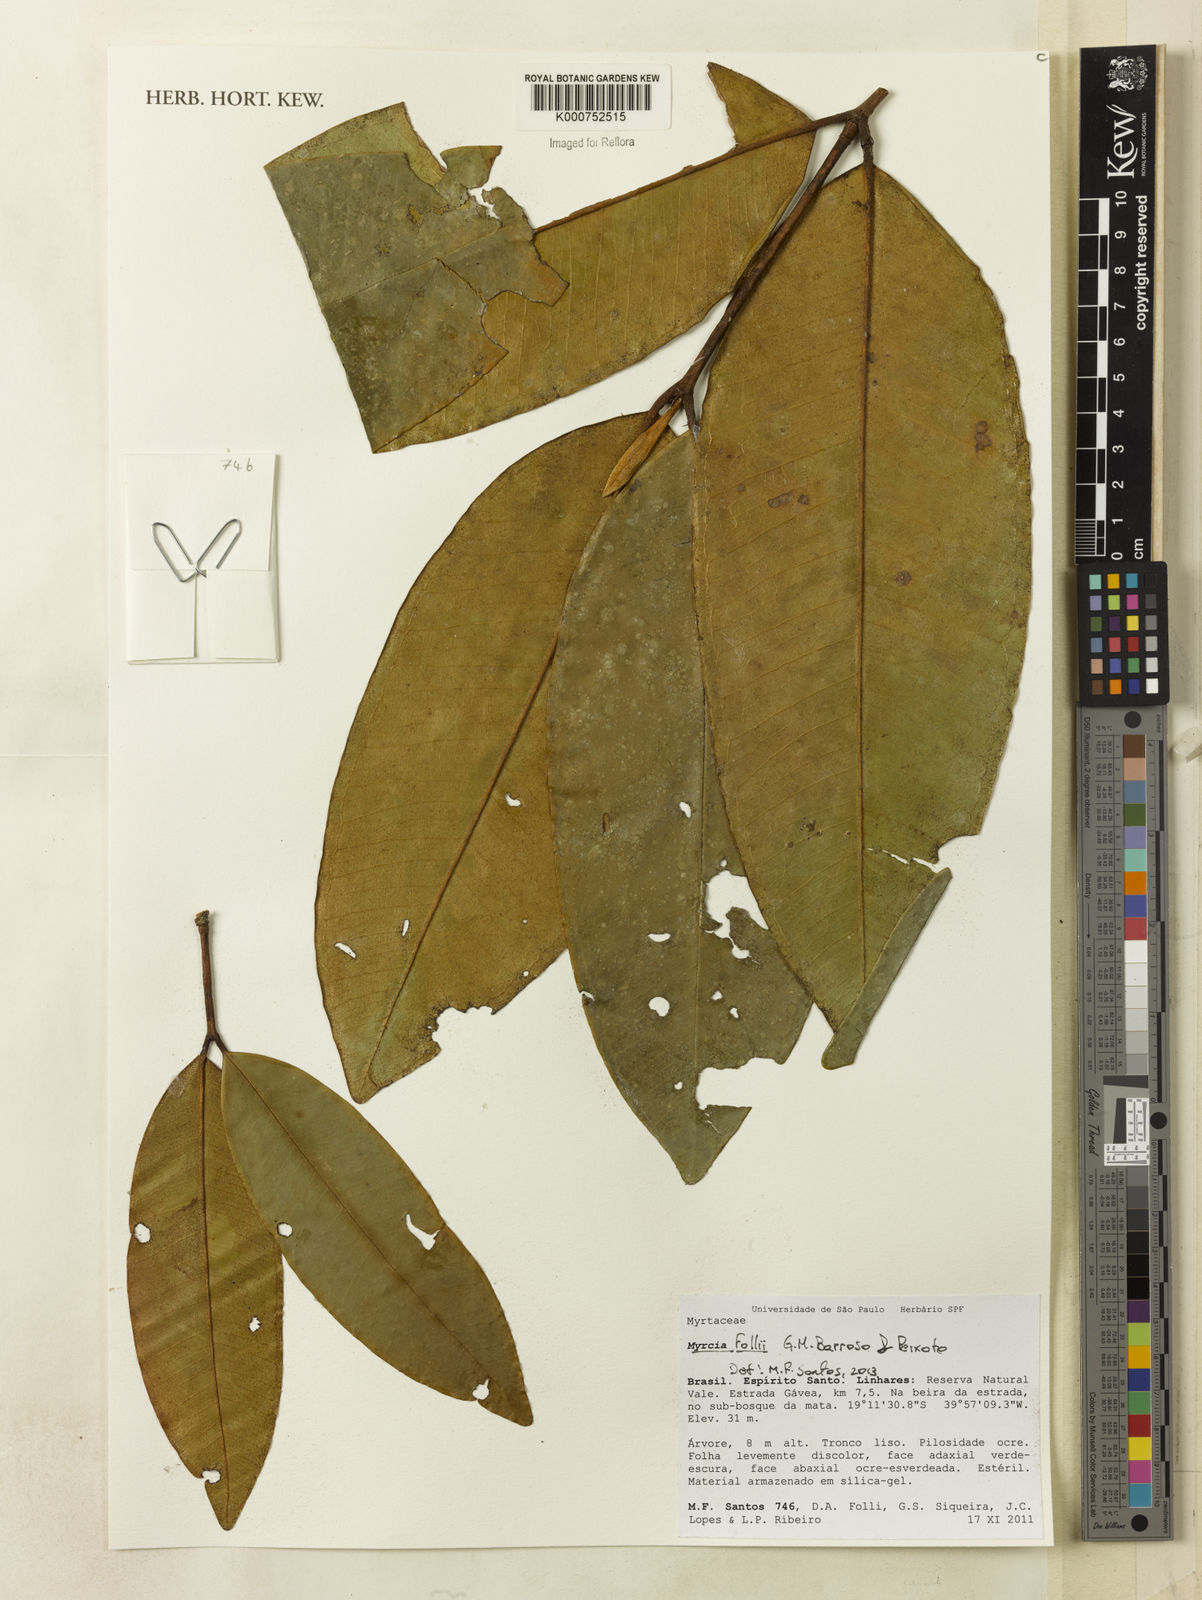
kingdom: Plantae
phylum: Tracheophyta
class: Magnoliopsida
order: Myrtales
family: Myrtaceae
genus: Myrcia
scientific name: Myrcia follii
